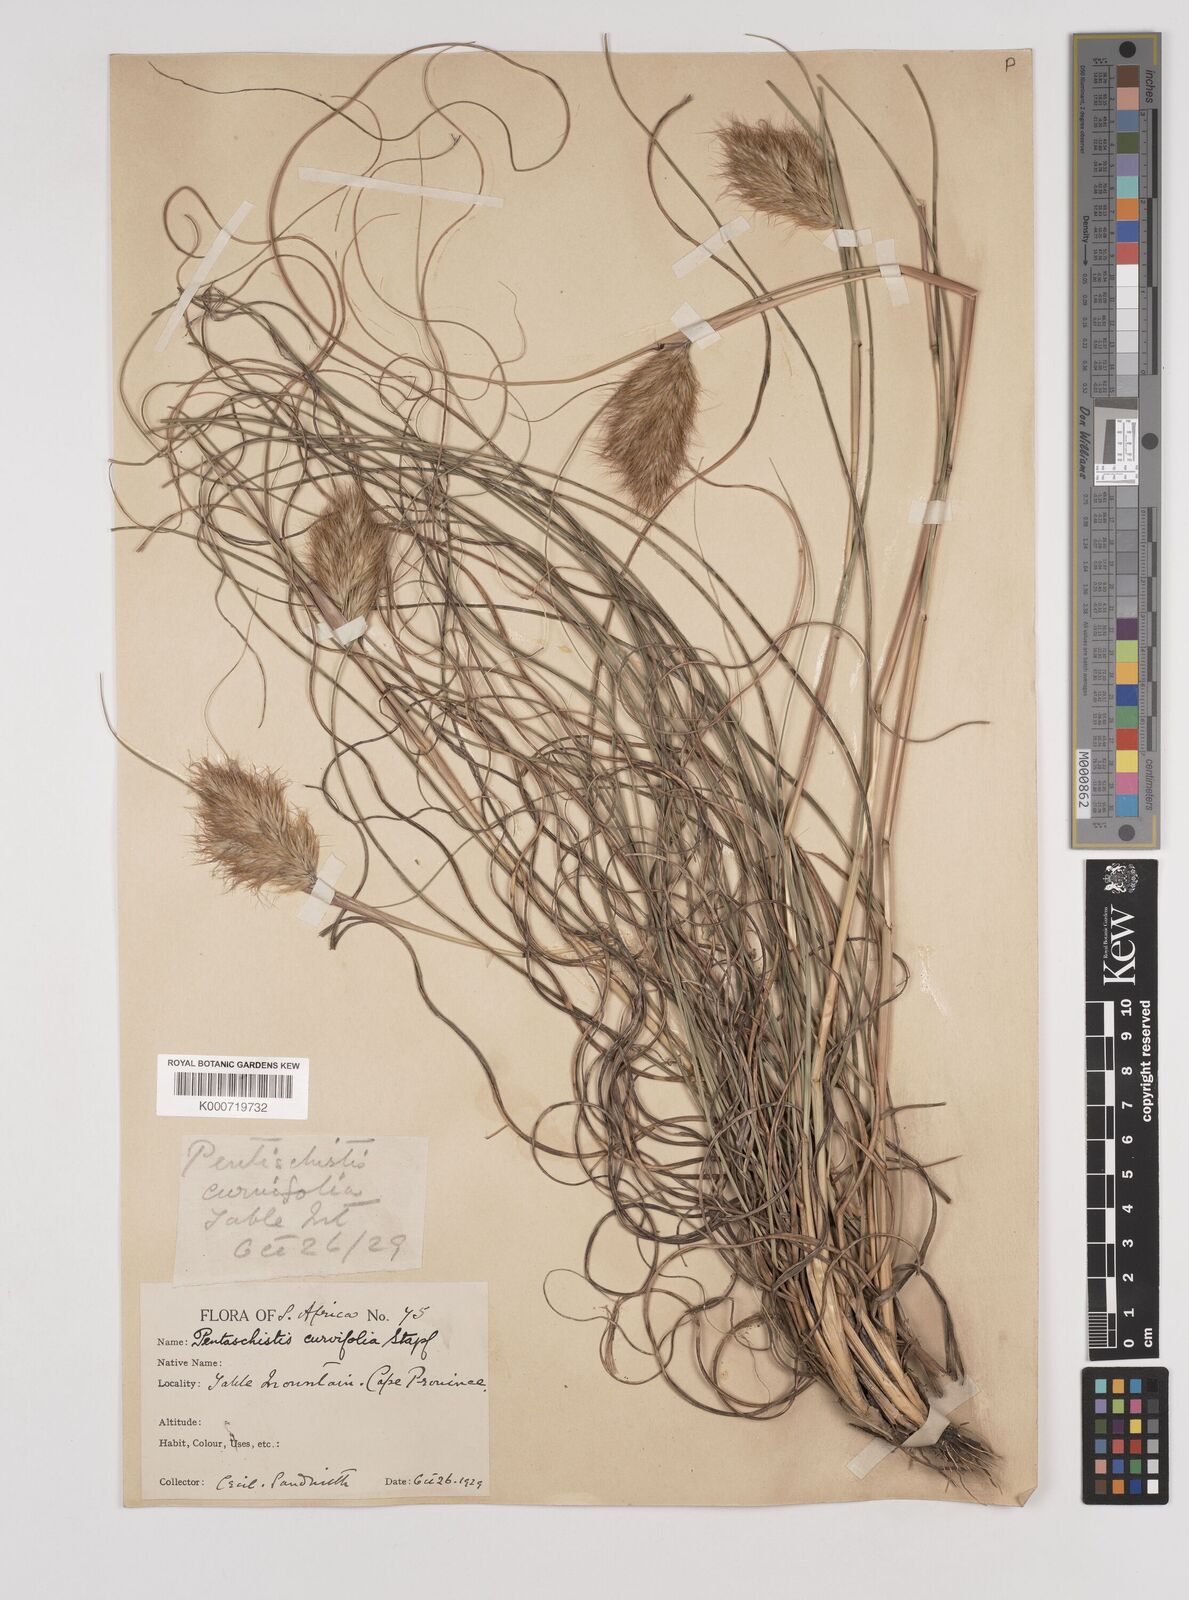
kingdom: Plantae
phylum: Tracheophyta
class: Liliopsida
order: Poales
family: Poaceae
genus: Pentameris
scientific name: Pentameris curvifolia
